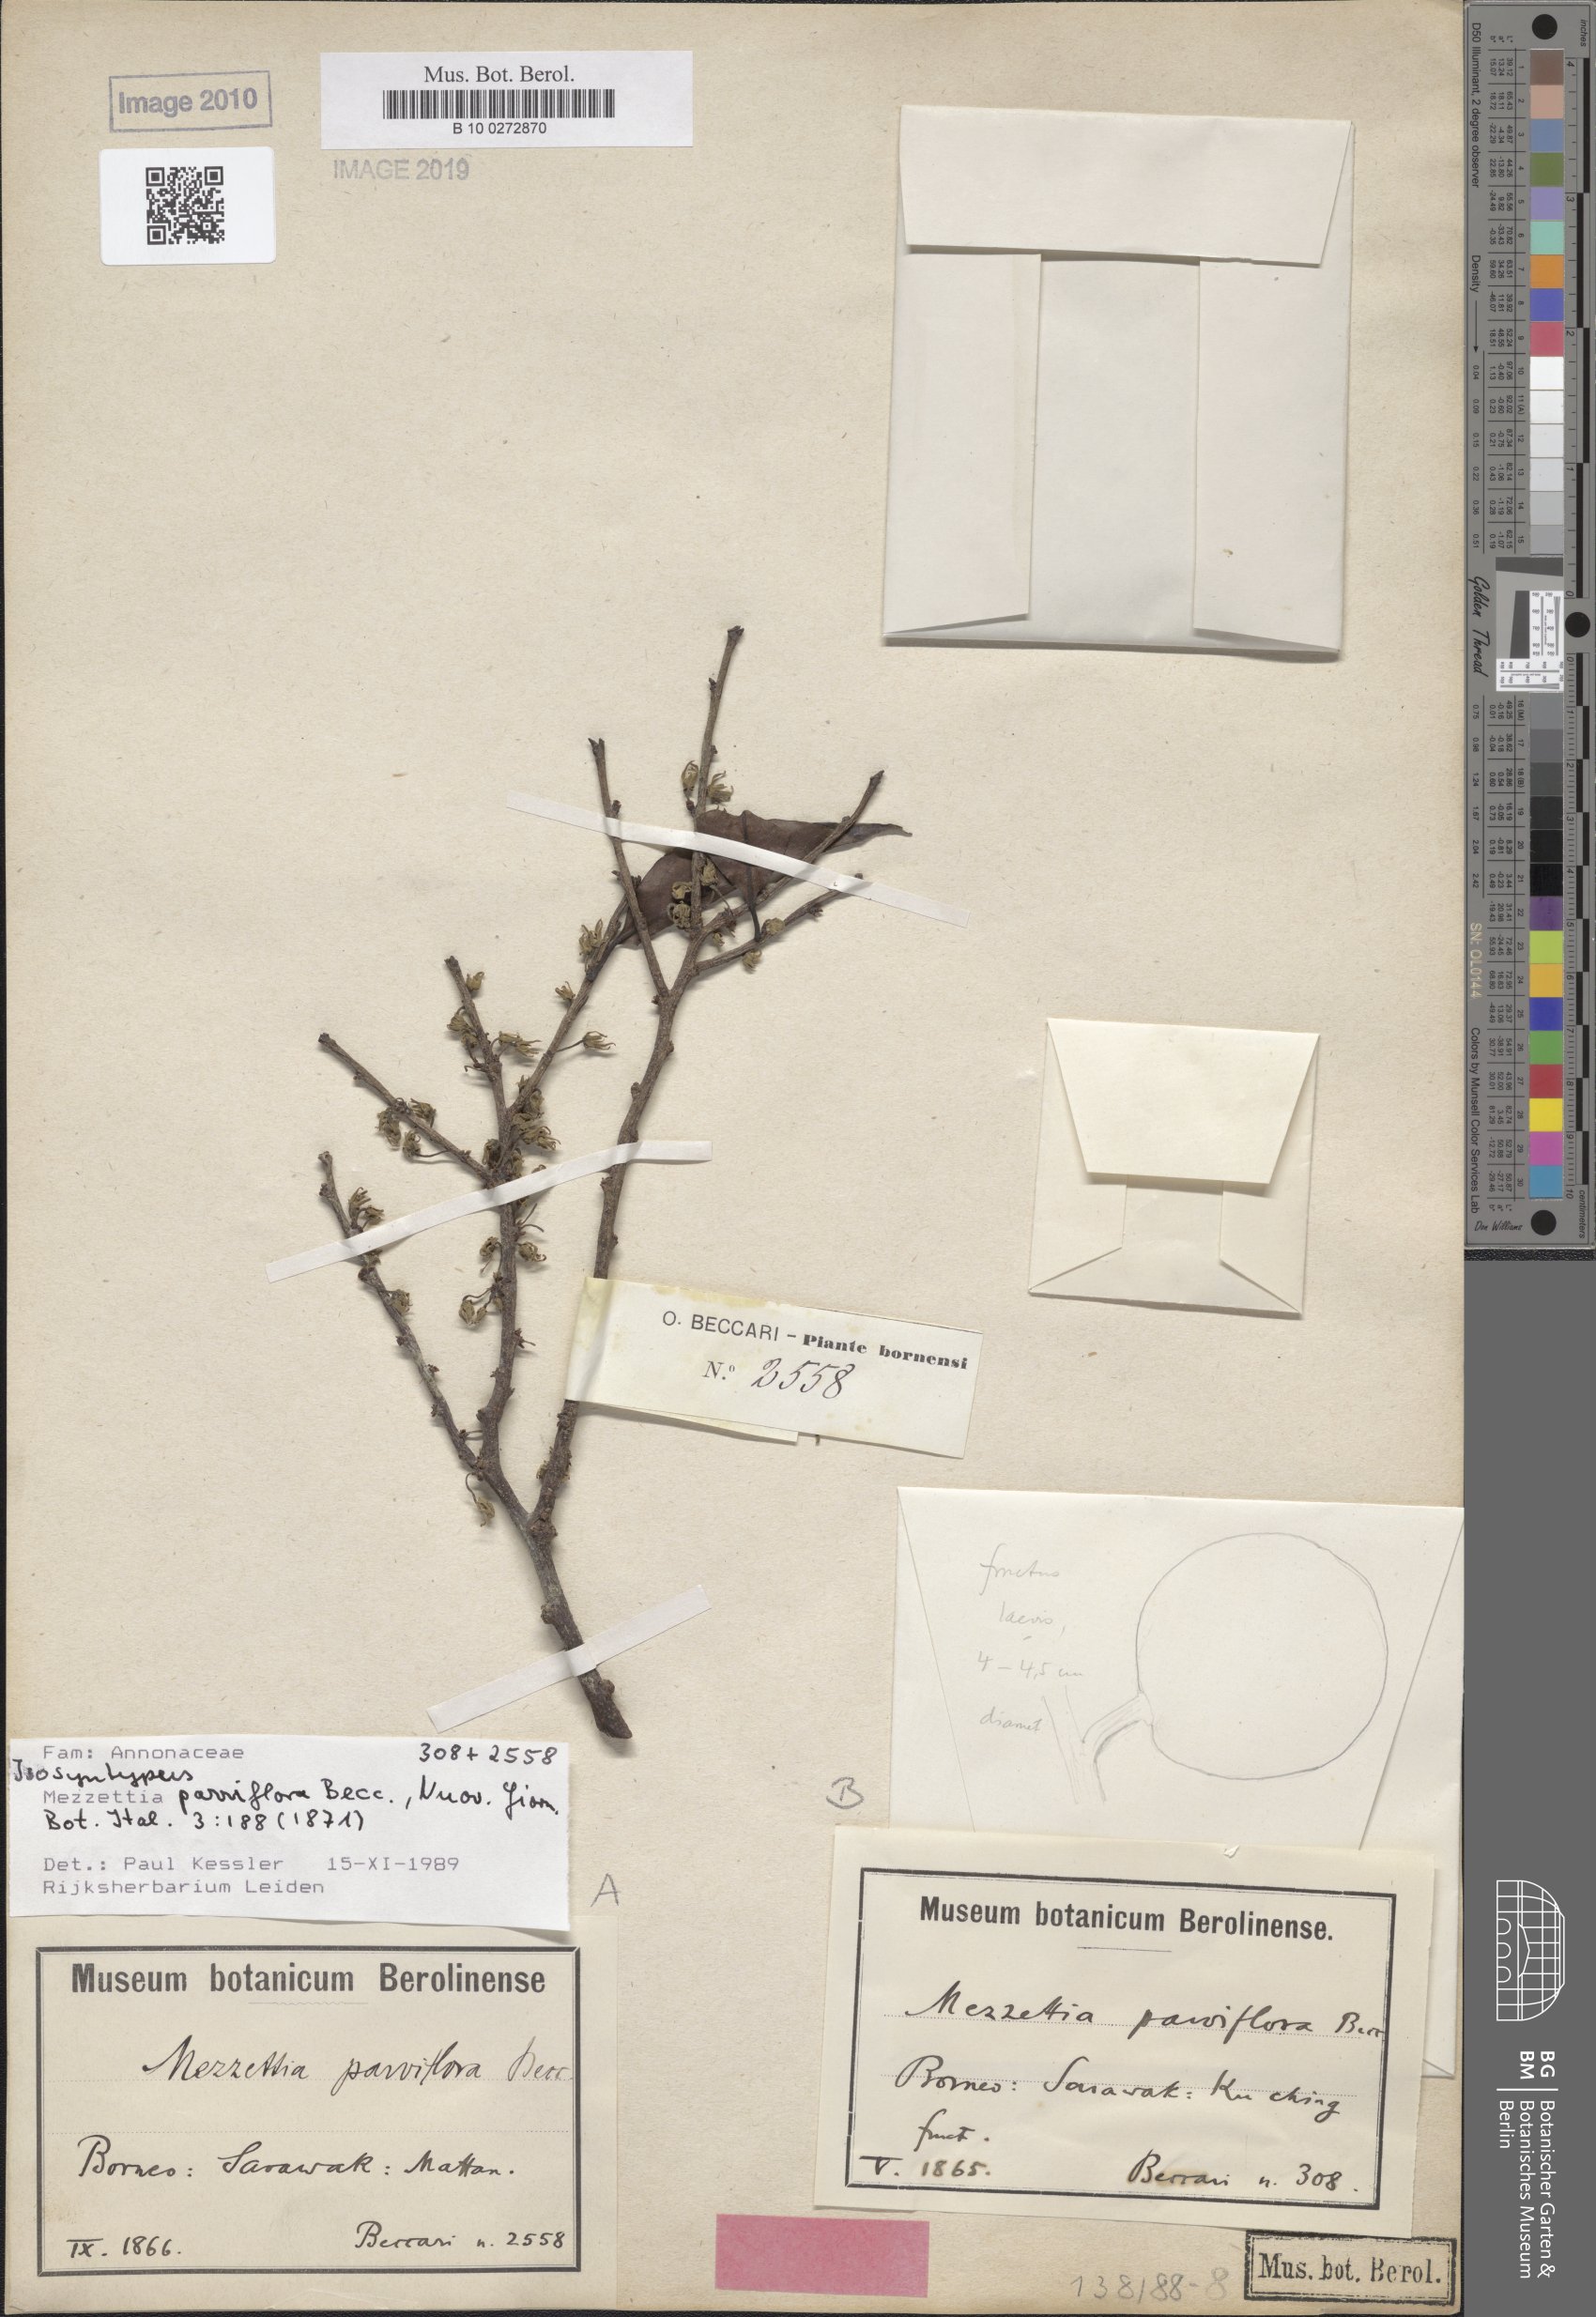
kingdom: Plantae
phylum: Tracheophyta
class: Magnoliopsida
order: Magnoliales
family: Annonaceae
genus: Mezzettia
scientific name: Mezzettia parviflora
